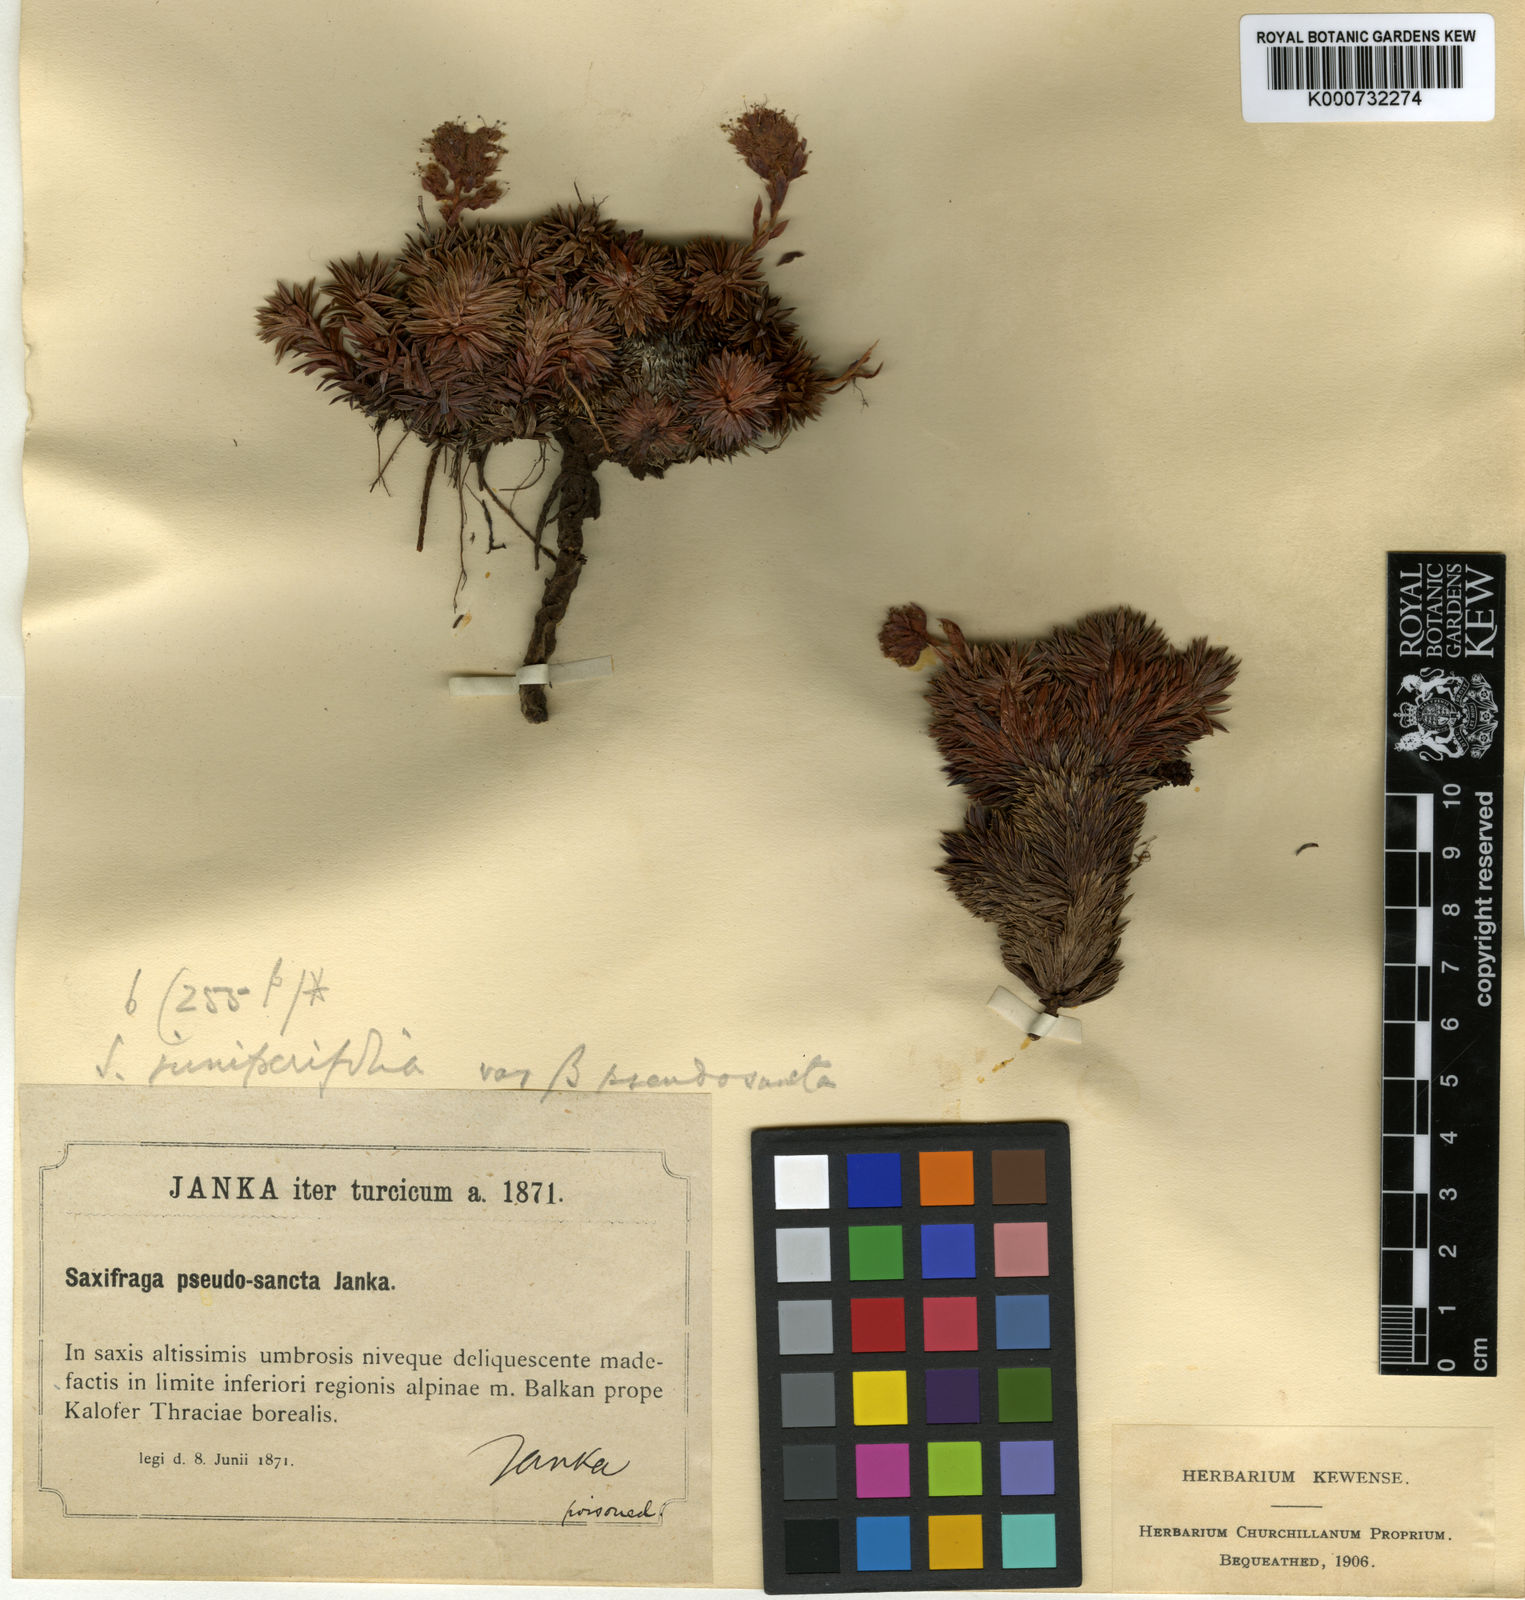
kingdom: Plantae
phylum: Tracheophyta
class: Magnoliopsida
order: Saxifragales
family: Saxifragaceae
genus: Saxifraga
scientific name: Saxifraga
